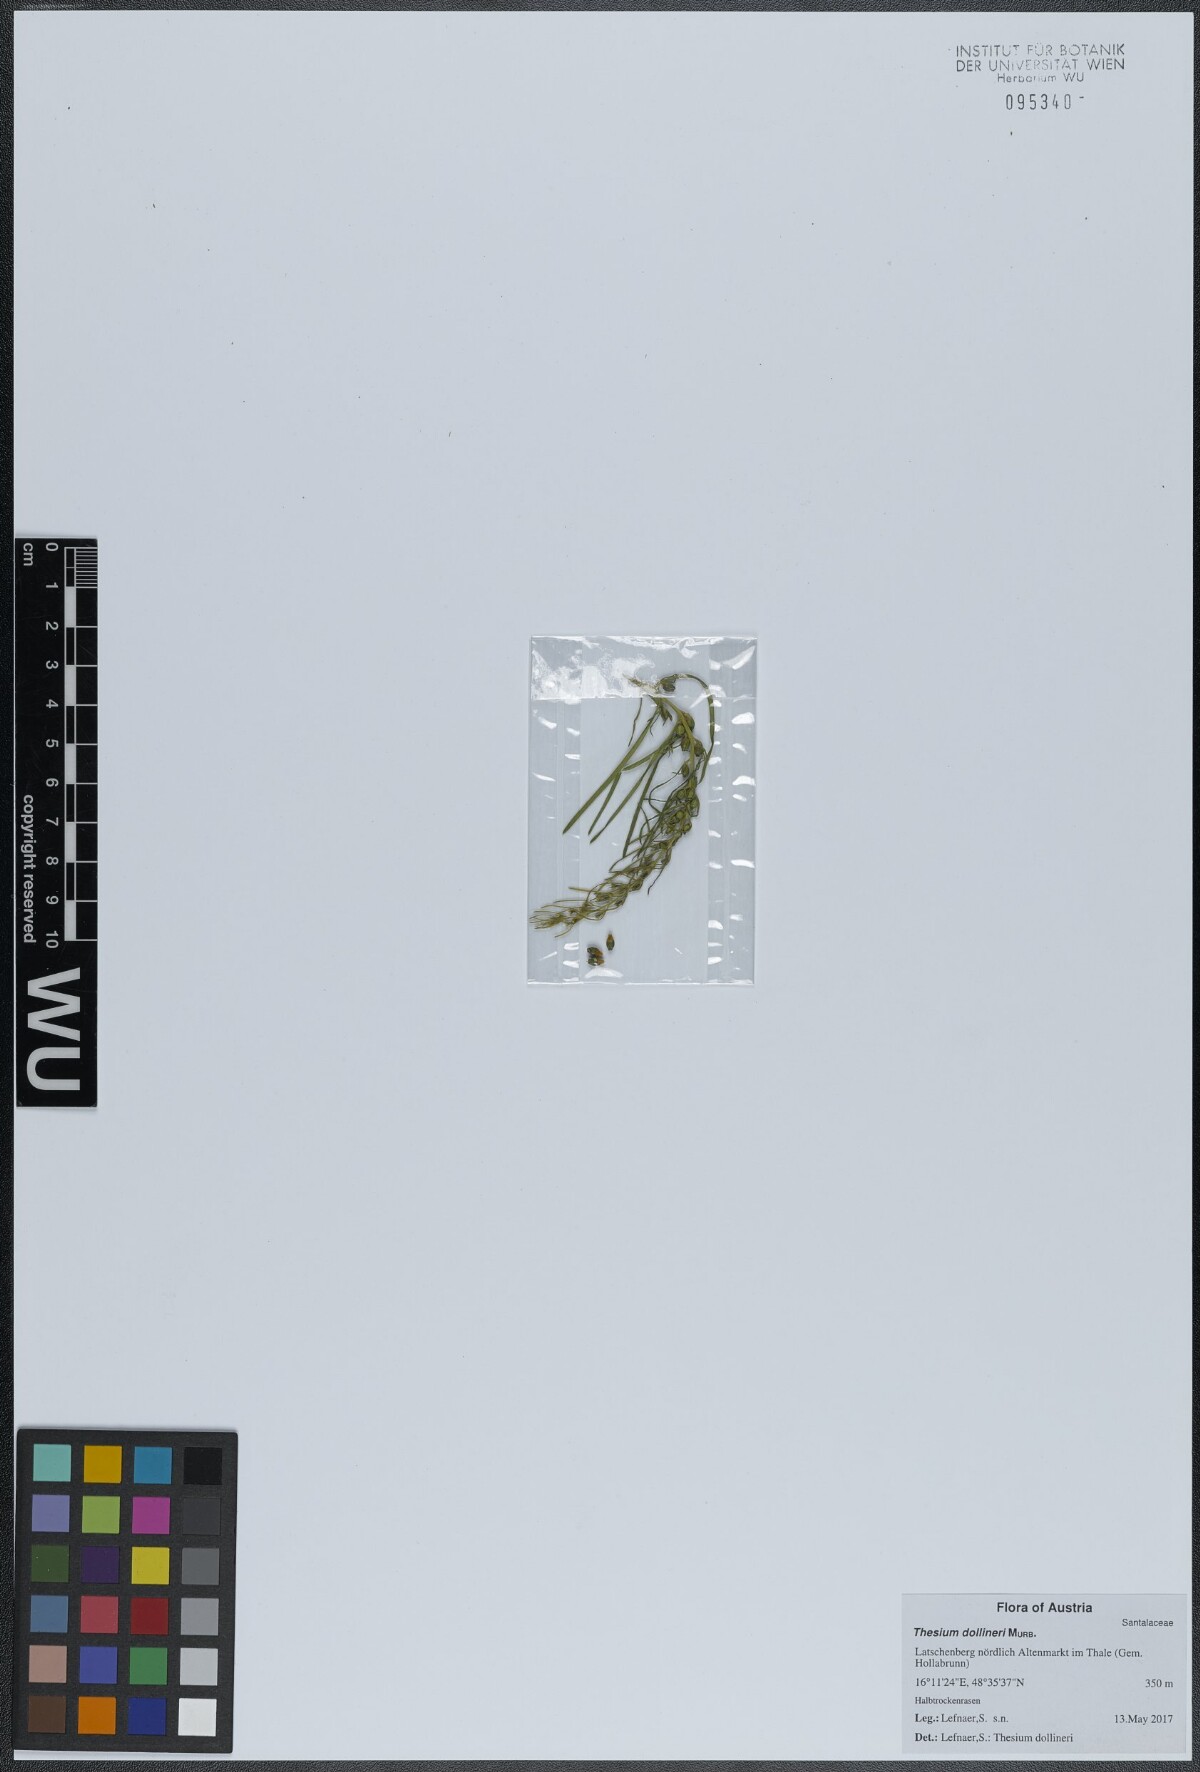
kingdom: Plantae
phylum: Tracheophyta
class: Magnoliopsida
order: Santalales
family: Thesiaceae
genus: Thesium
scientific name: Thesium dollineri
